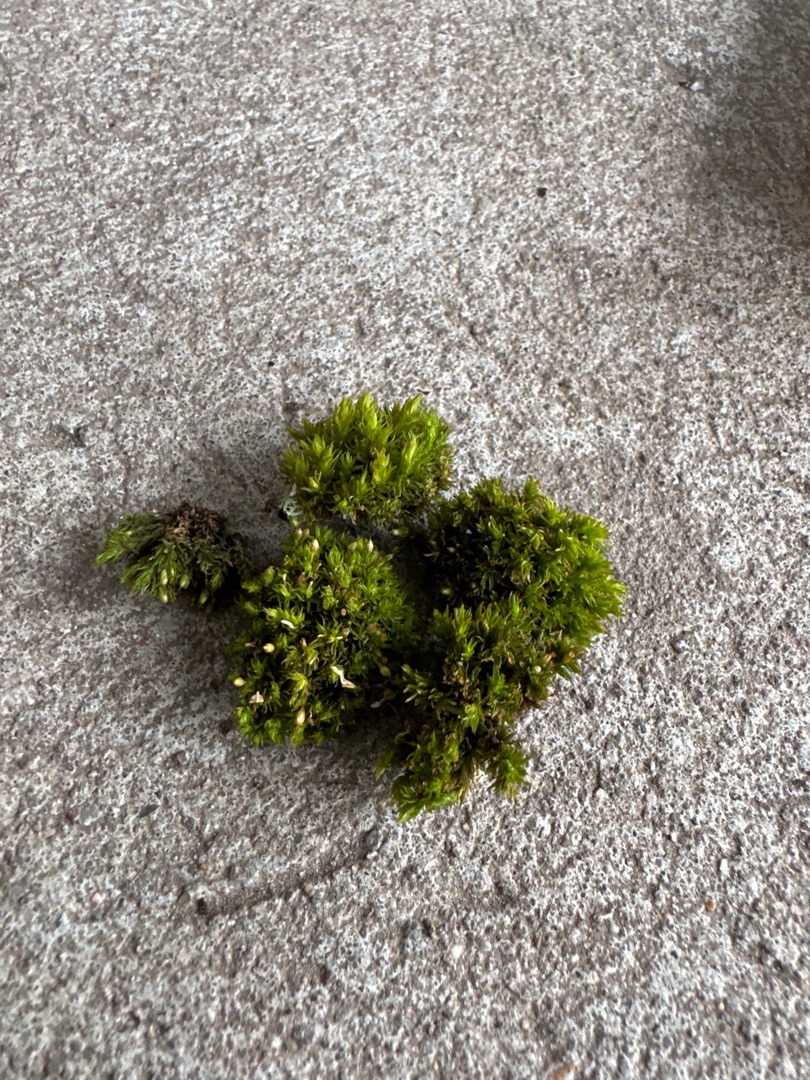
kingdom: Plantae
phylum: Bryophyta
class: Bryopsida
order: Orthotrichales
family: Orthotrichaceae
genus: Lewinskya
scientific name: Lewinskya affinis
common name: Almindelig furehætte
